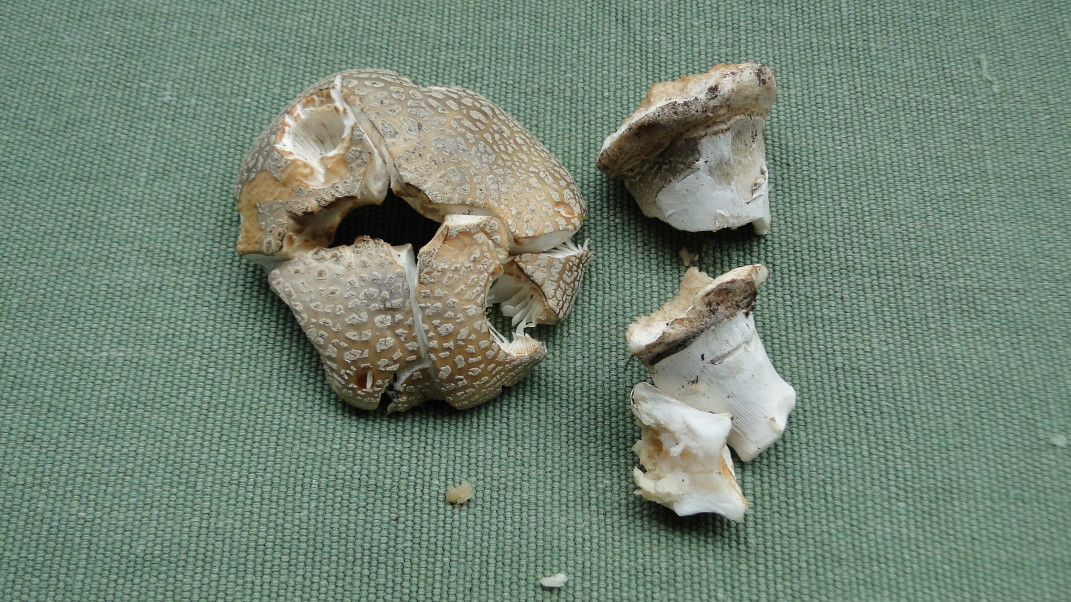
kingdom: Fungi
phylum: Basidiomycota
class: Agaricomycetes
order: Agaricales
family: Amanitaceae
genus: Amanita
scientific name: Amanita
